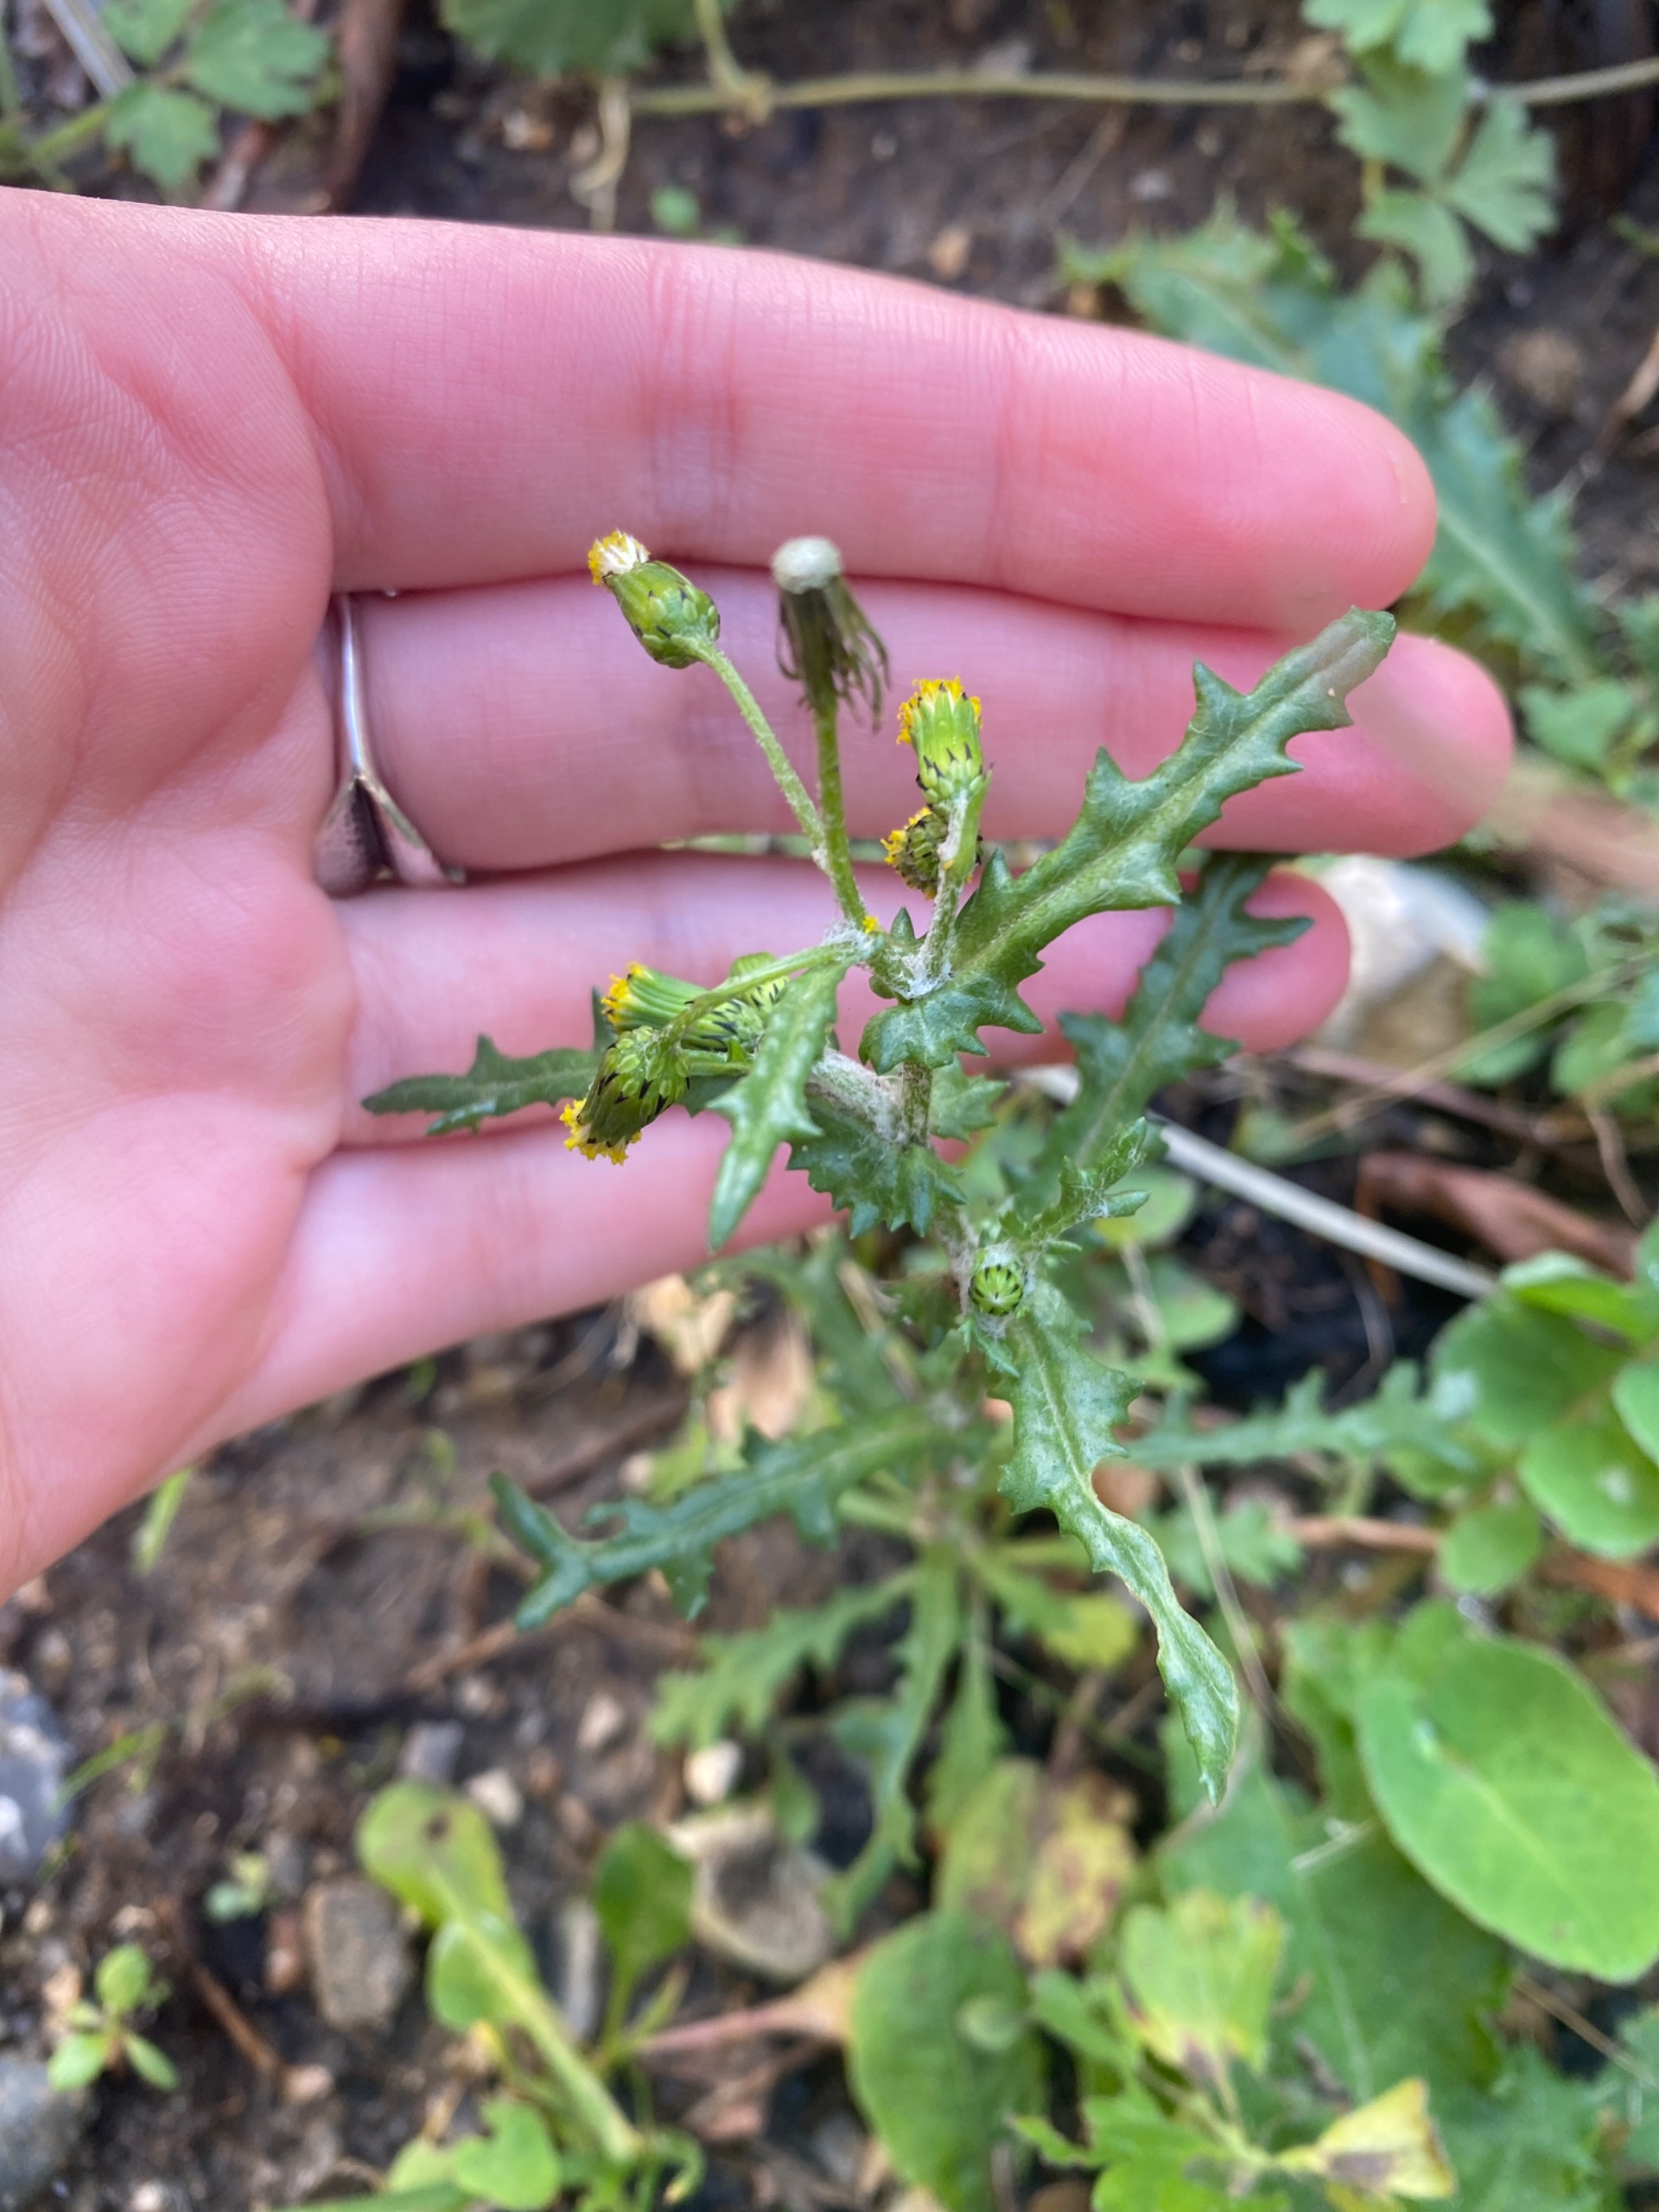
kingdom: Plantae
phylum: Tracheophyta
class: Magnoliopsida
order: Asterales
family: Asteraceae
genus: Senecio
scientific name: Senecio vulgaris
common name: Almindelig brandbæger
